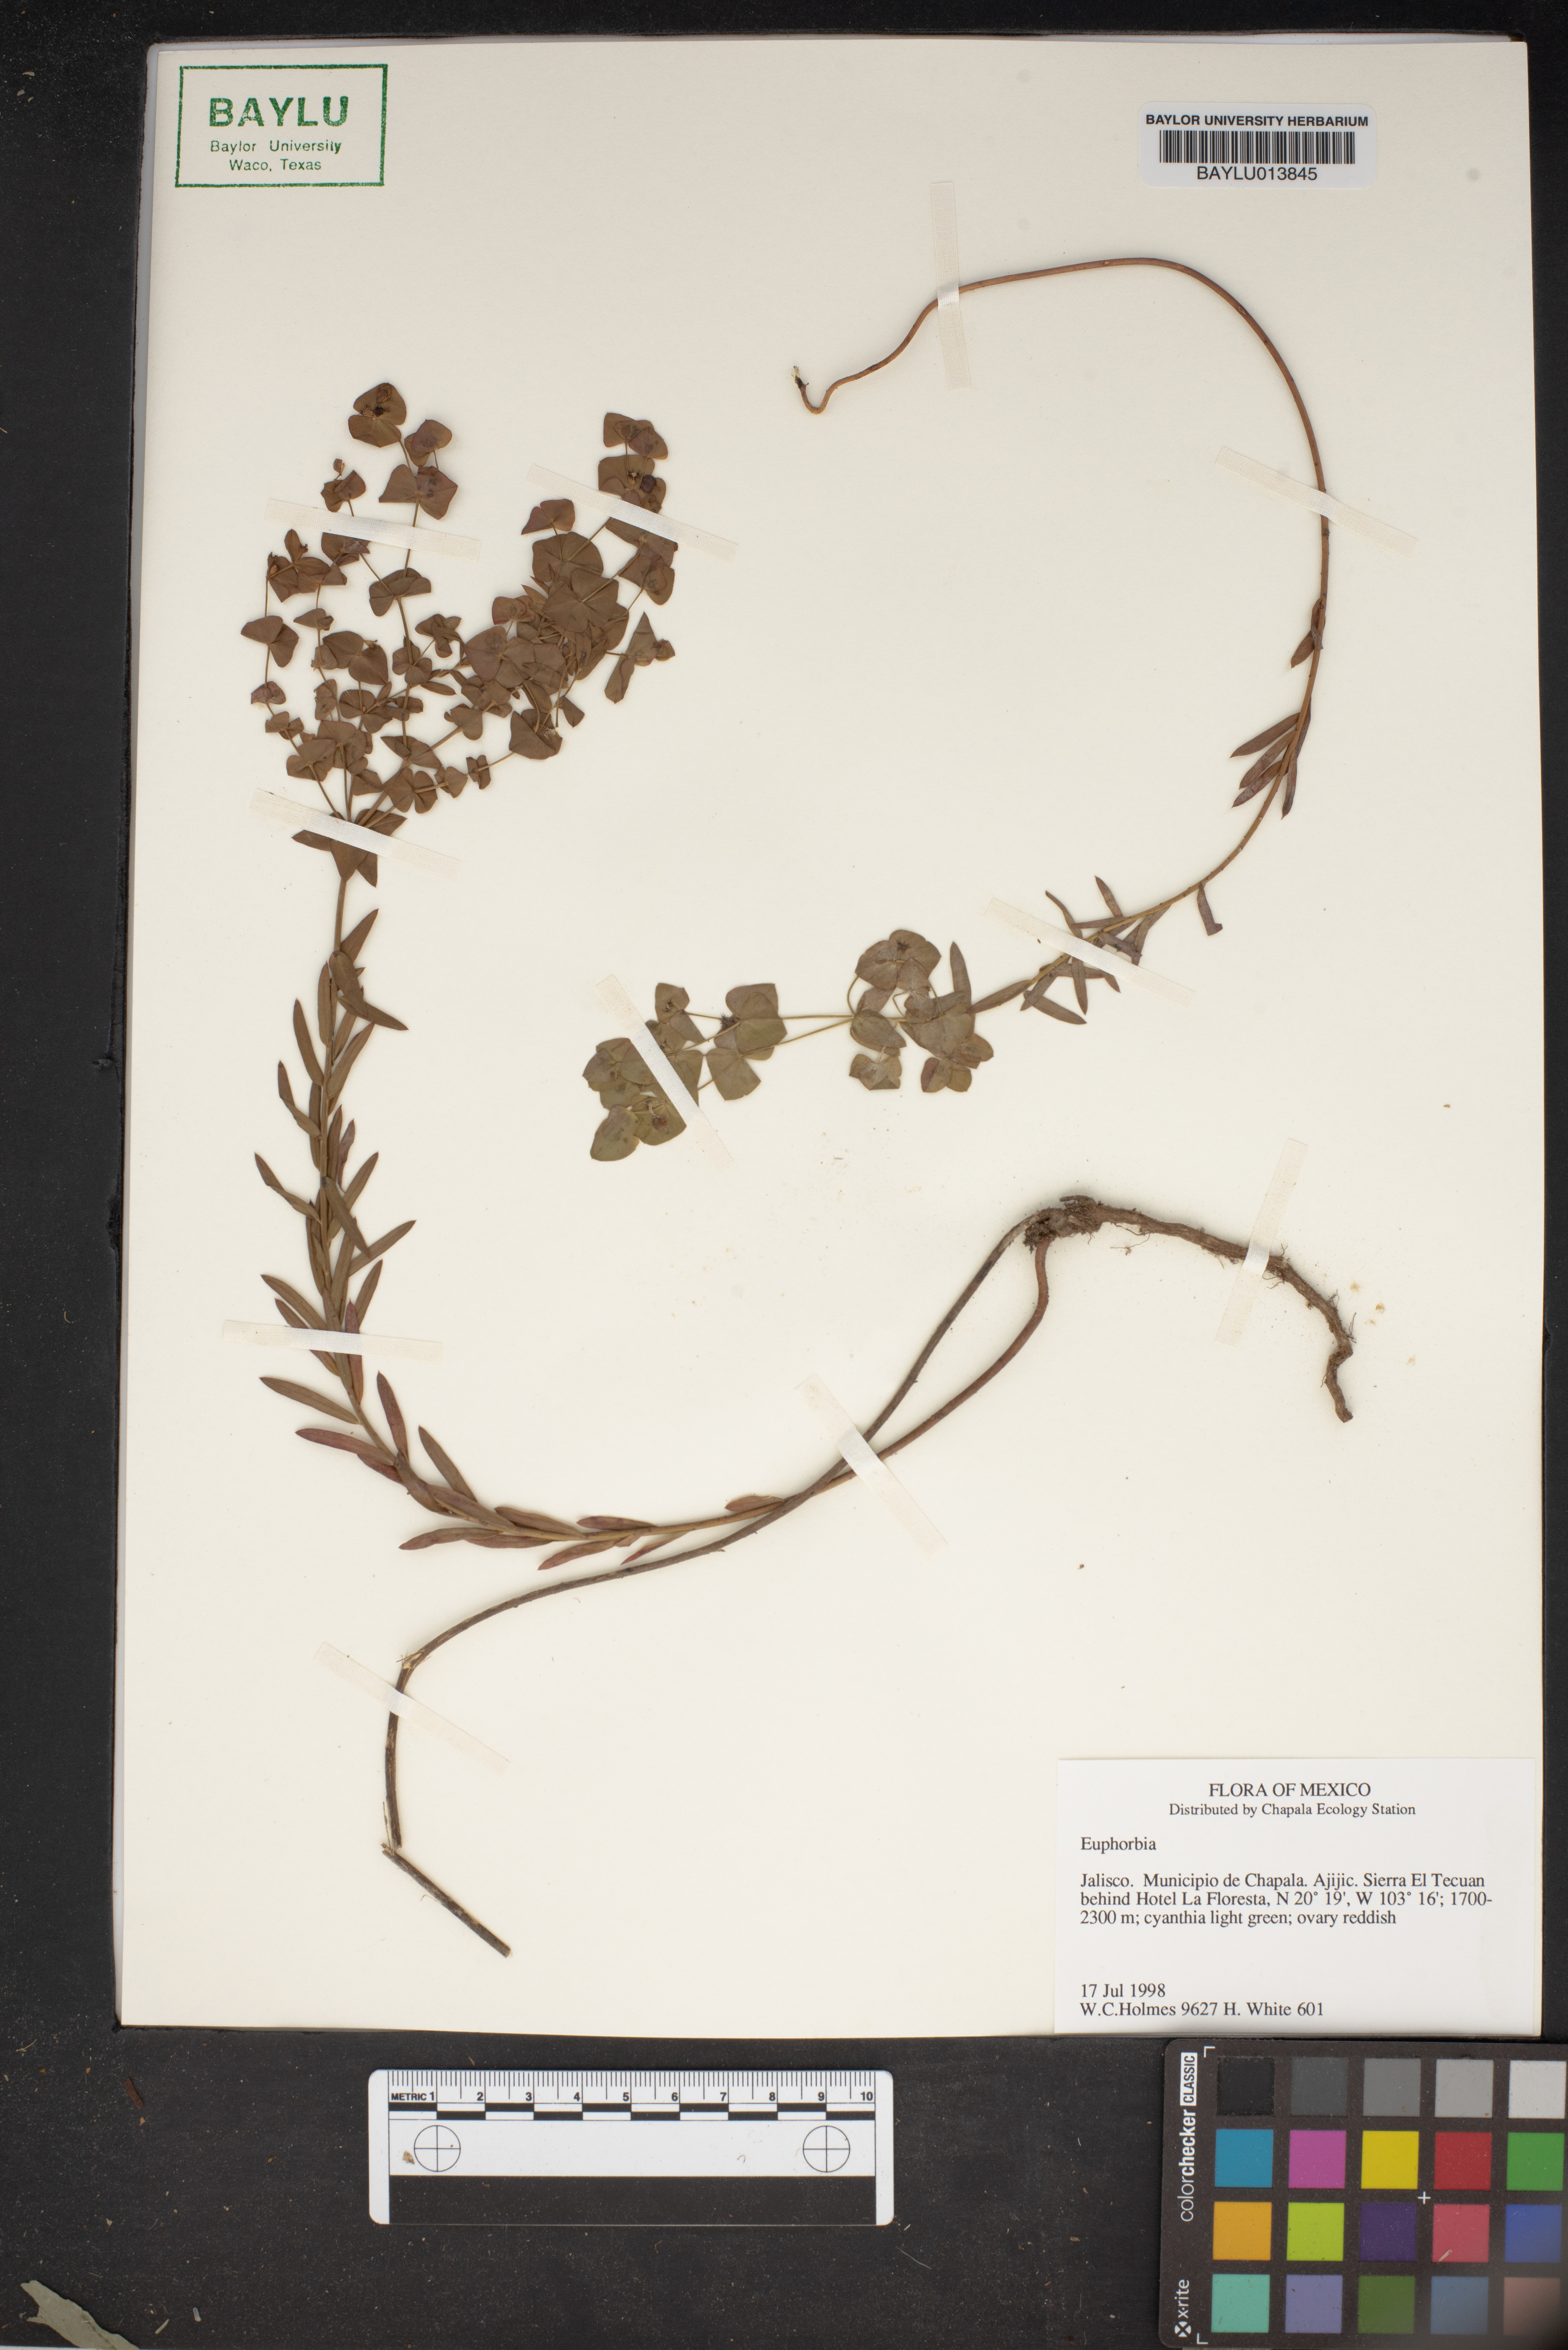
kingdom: Plantae
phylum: Tracheophyta
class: Magnoliopsida
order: Malpighiales
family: Euphorbiaceae
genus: Euphorbia
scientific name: Euphorbia
